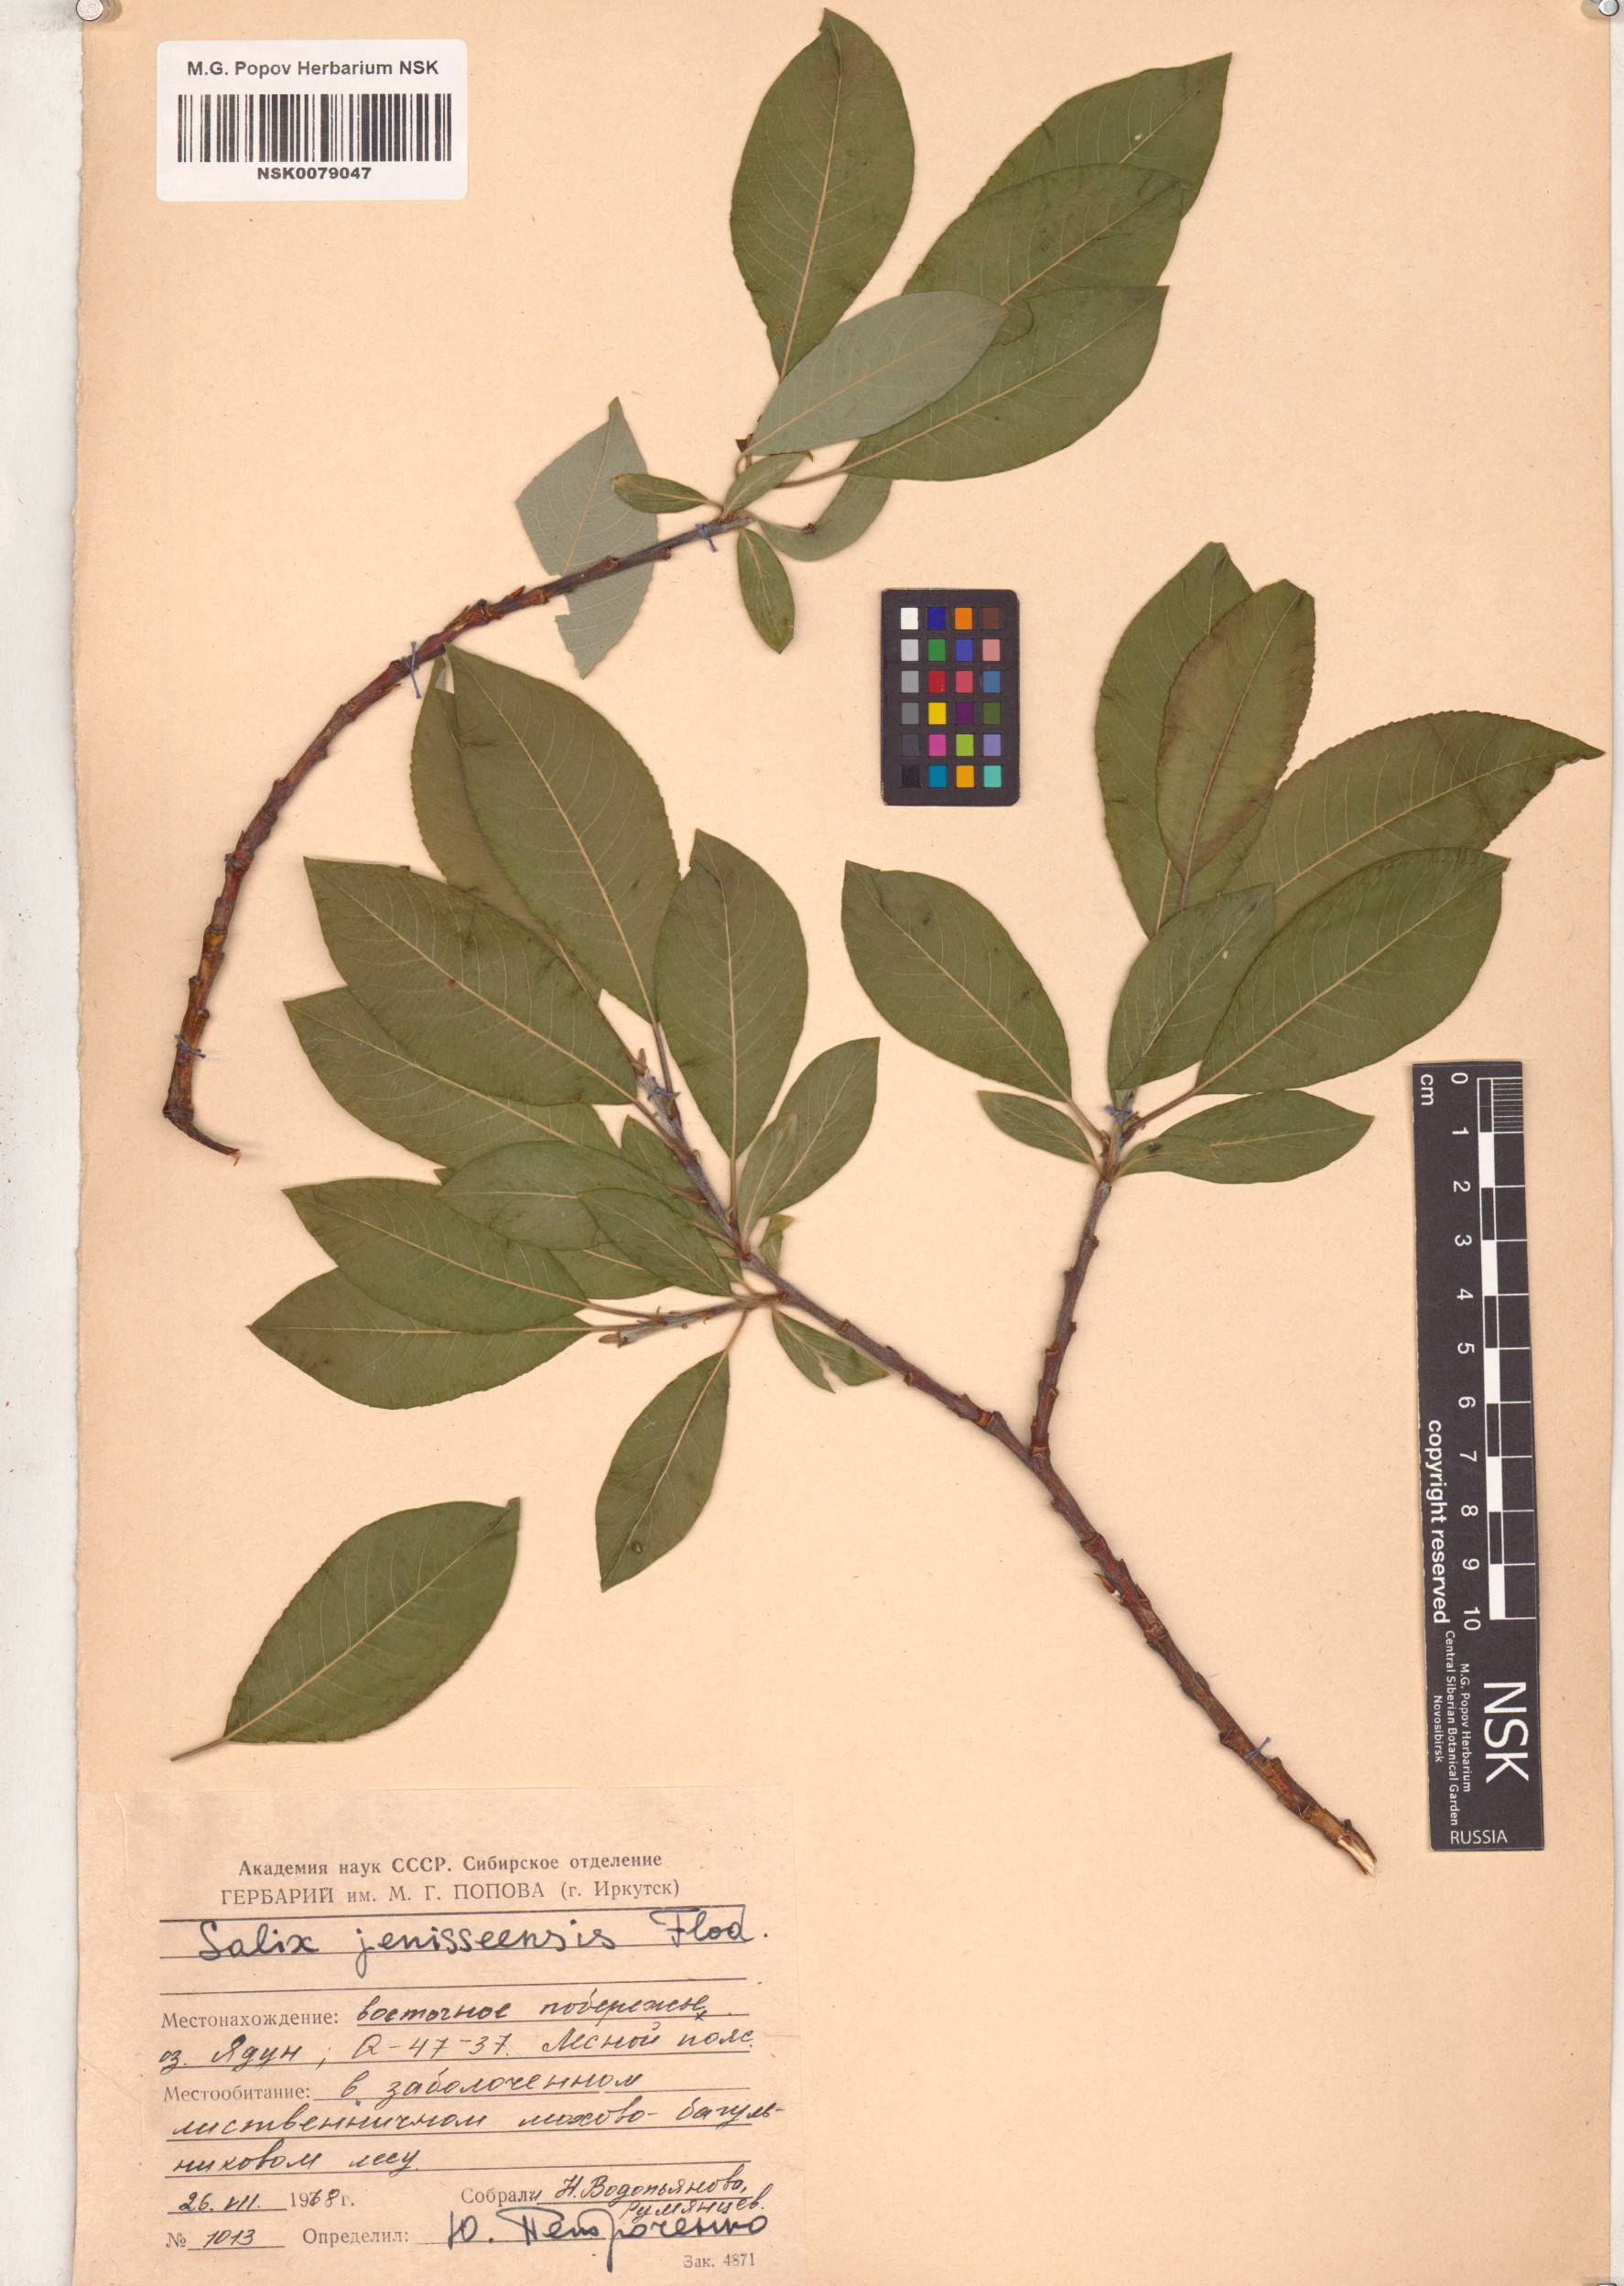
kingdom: Plantae
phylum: Tracheophyta
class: Magnoliopsida
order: Malpighiales
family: Salicaceae
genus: Salix
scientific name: Salix jenisseensis
